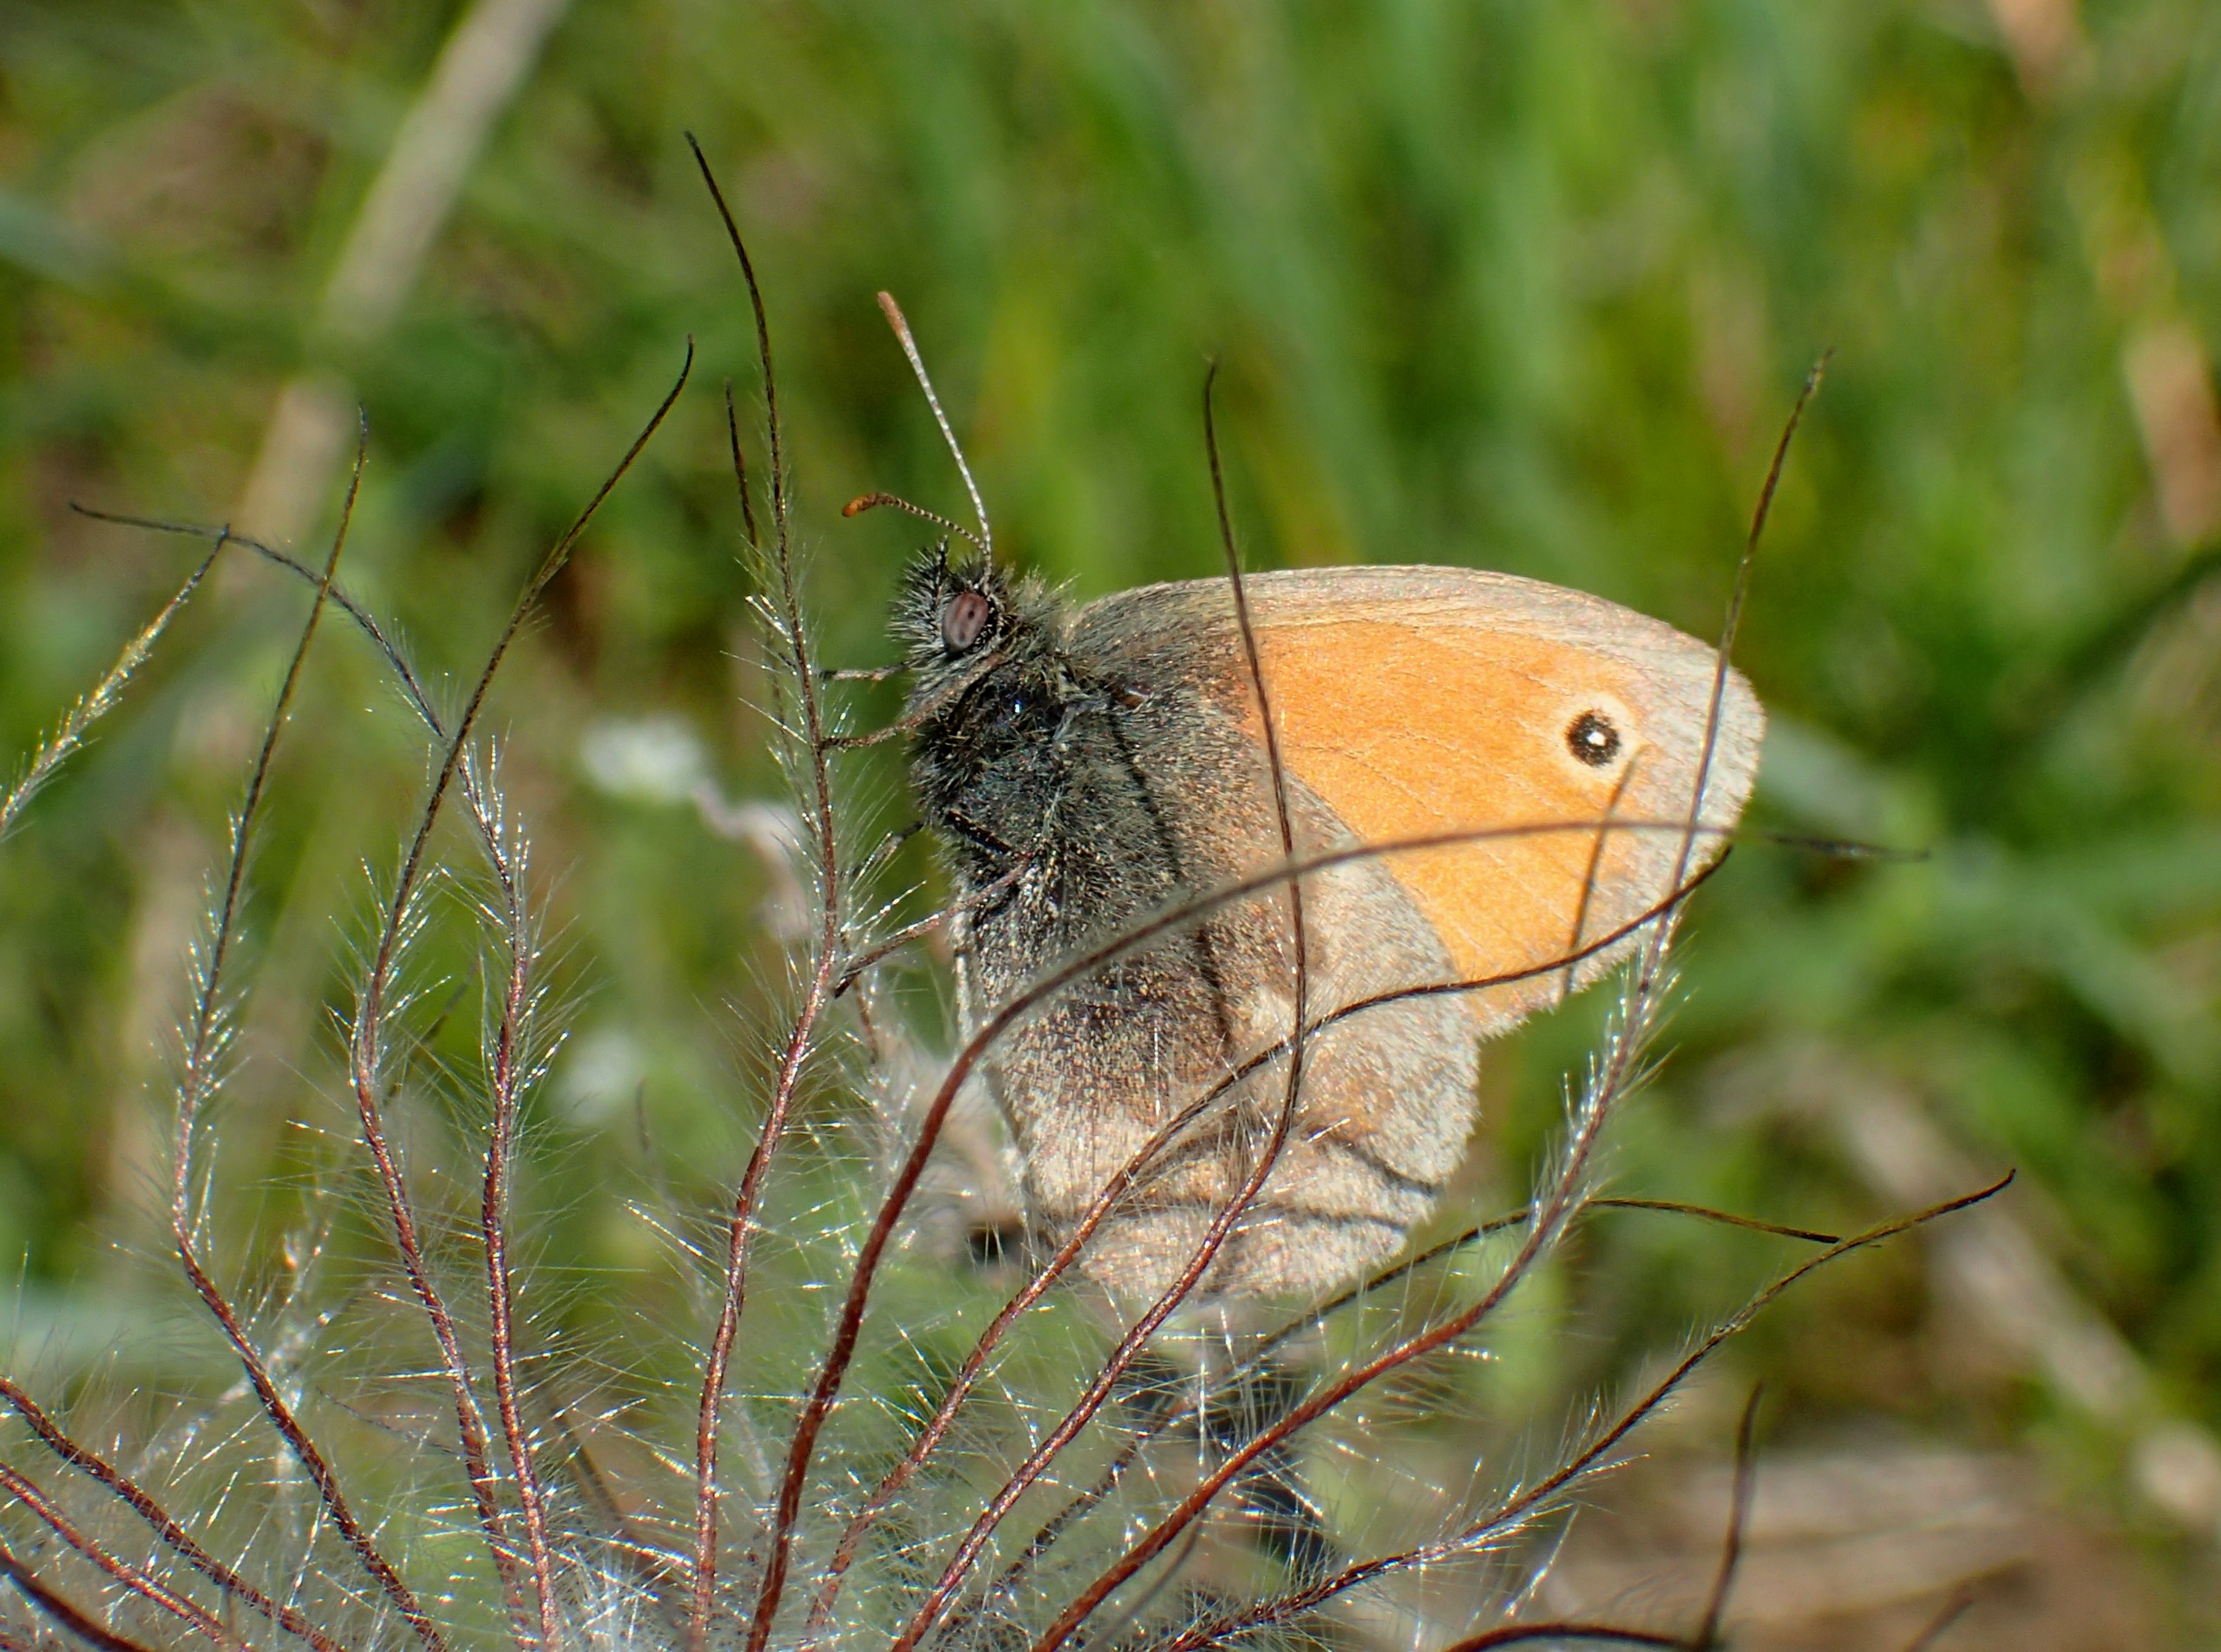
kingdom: Animalia
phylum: Arthropoda
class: Insecta
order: Lepidoptera
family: Nymphalidae
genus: Coenonympha
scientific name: Coenonympha pamphilus
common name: Okkergul randøje
